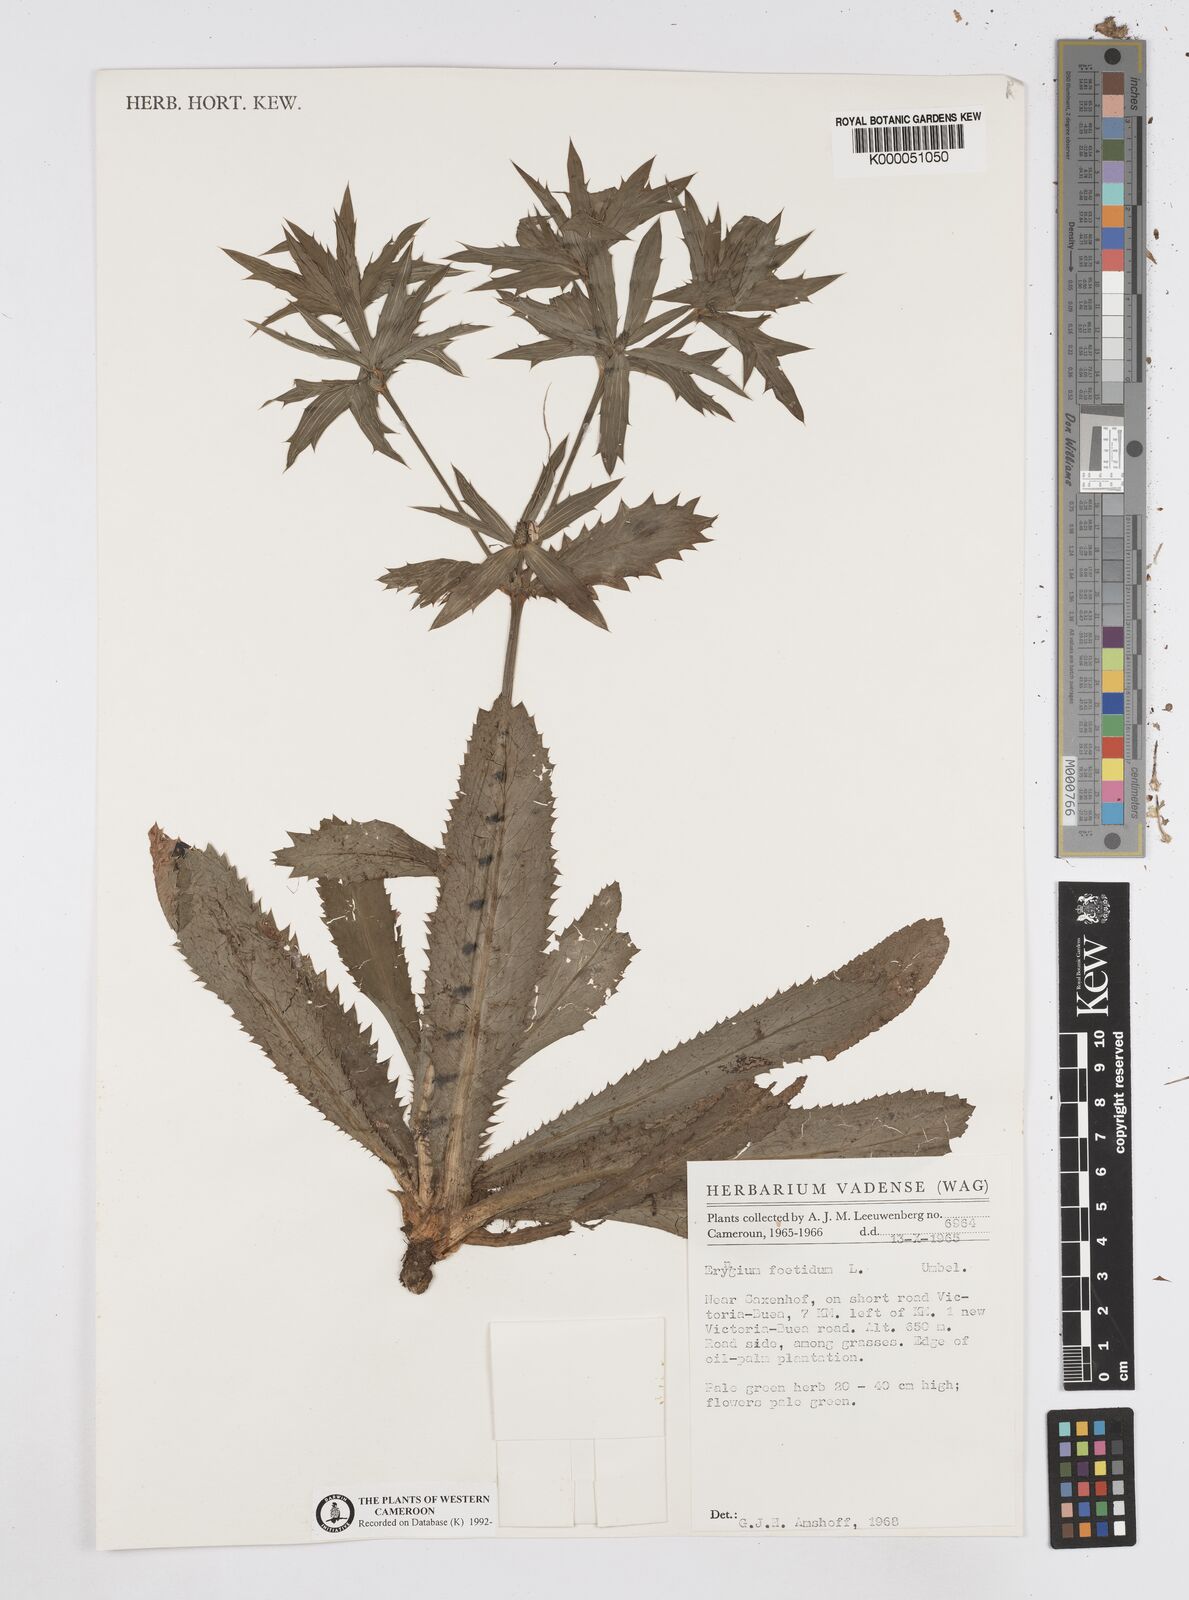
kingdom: Plantae
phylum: Tracheophyta
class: Magnoliopsida
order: Apiales
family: Apiaceae
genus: Eryngium
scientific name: Eryngium foetidum
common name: Fitweed
